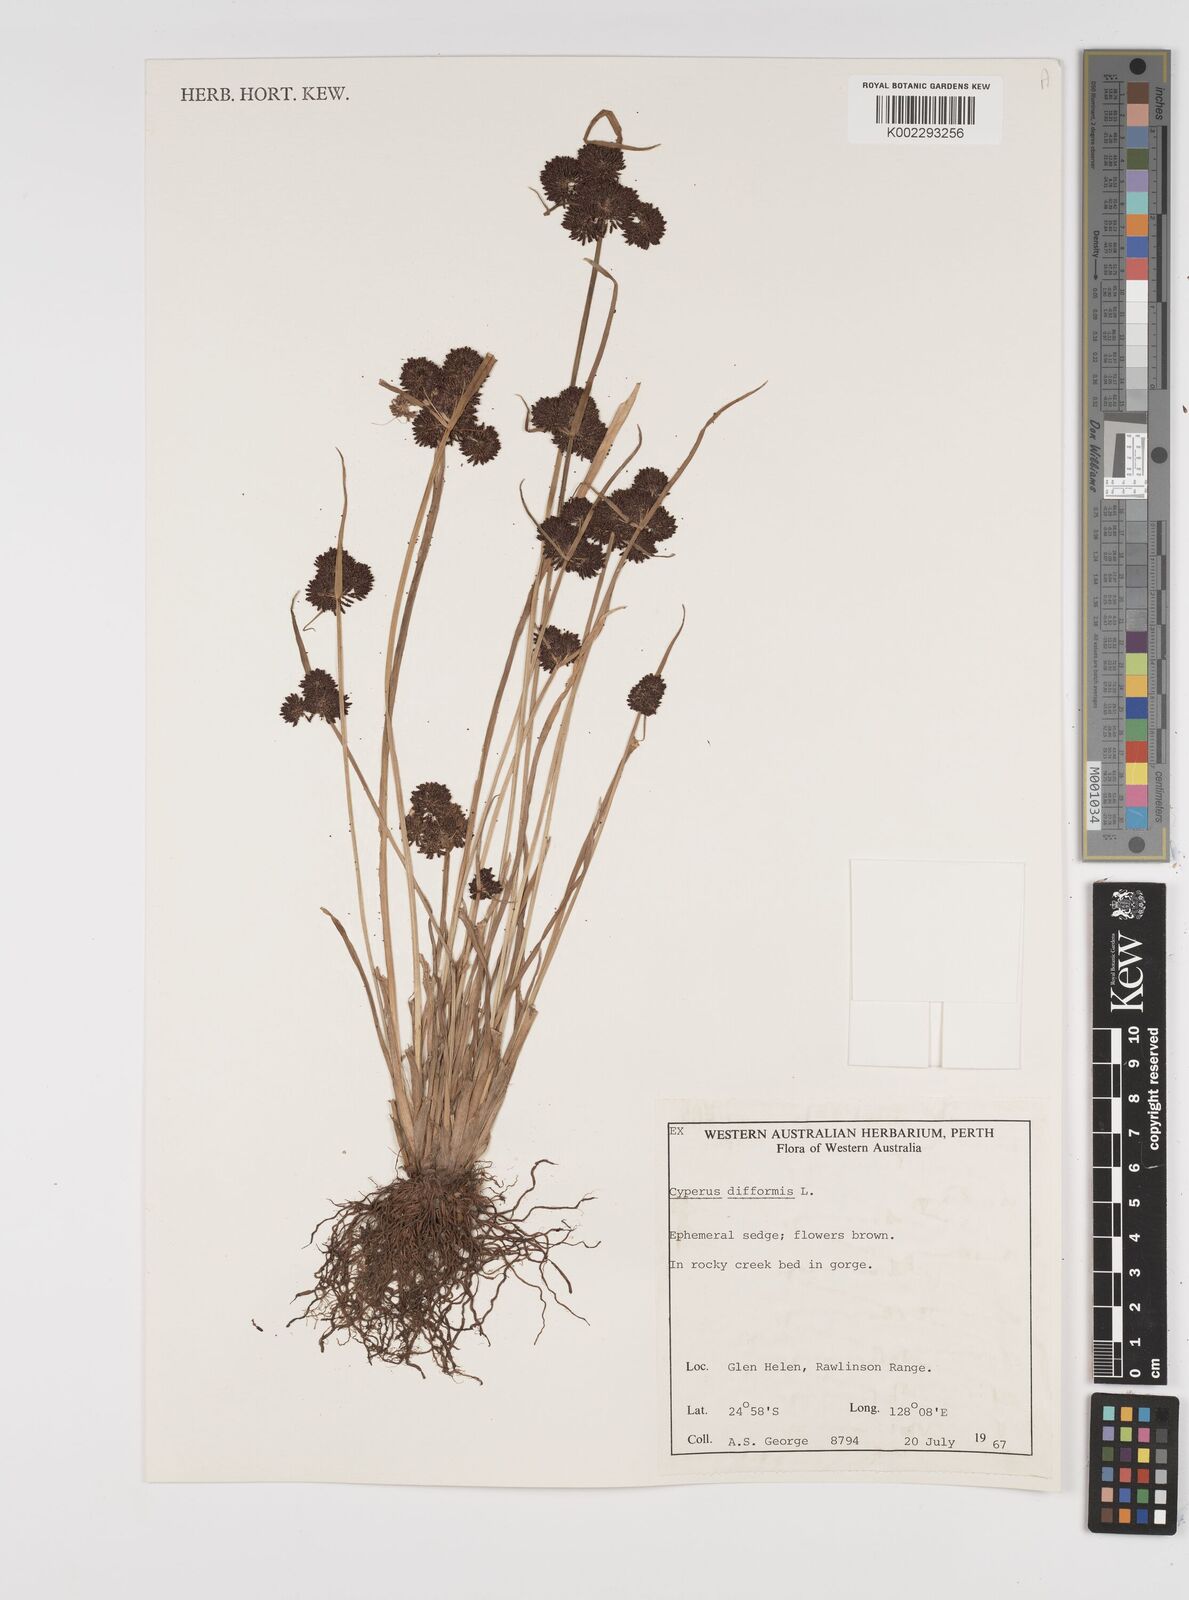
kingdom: Plantae
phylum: Tracheophyta
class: Liliopsida
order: Poales
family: Cyperaceae
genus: Cyperus
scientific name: Cyperus difformis
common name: Variable flatsedge
